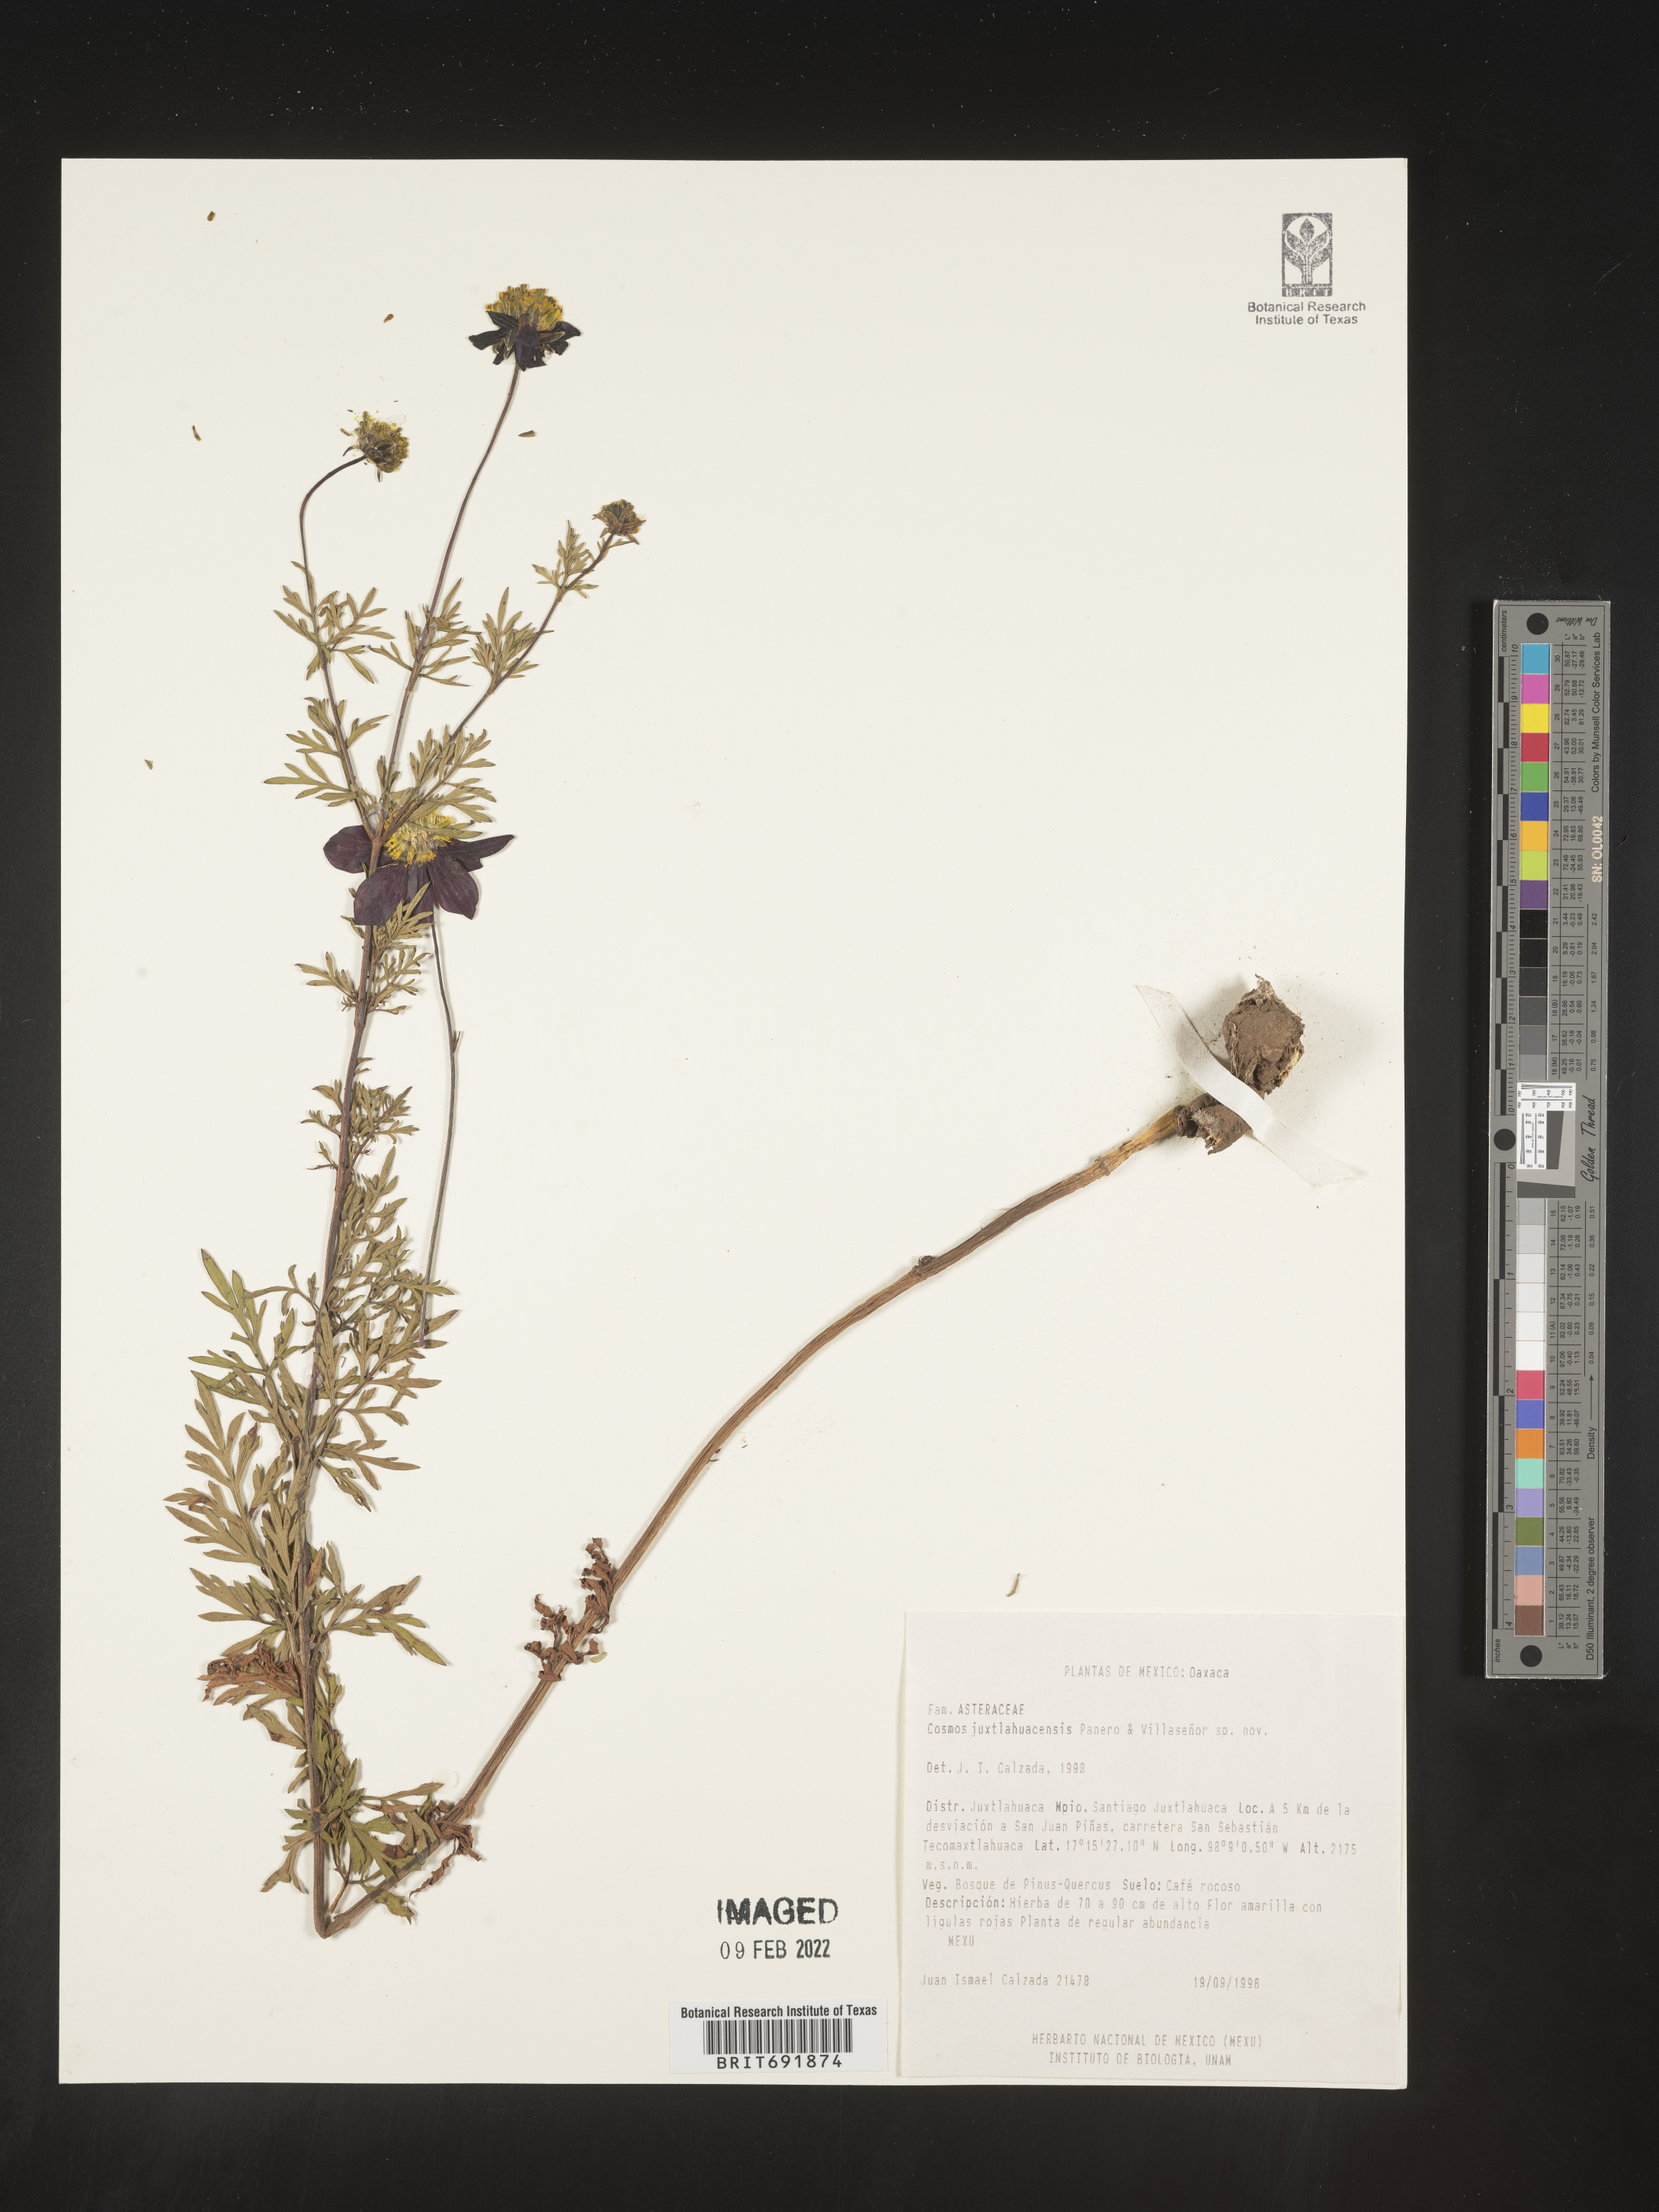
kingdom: Plantae
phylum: Tracheophyta
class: Magnoliopsida
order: Asterales
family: Asteraceae
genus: Cosmos
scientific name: Cosmos
